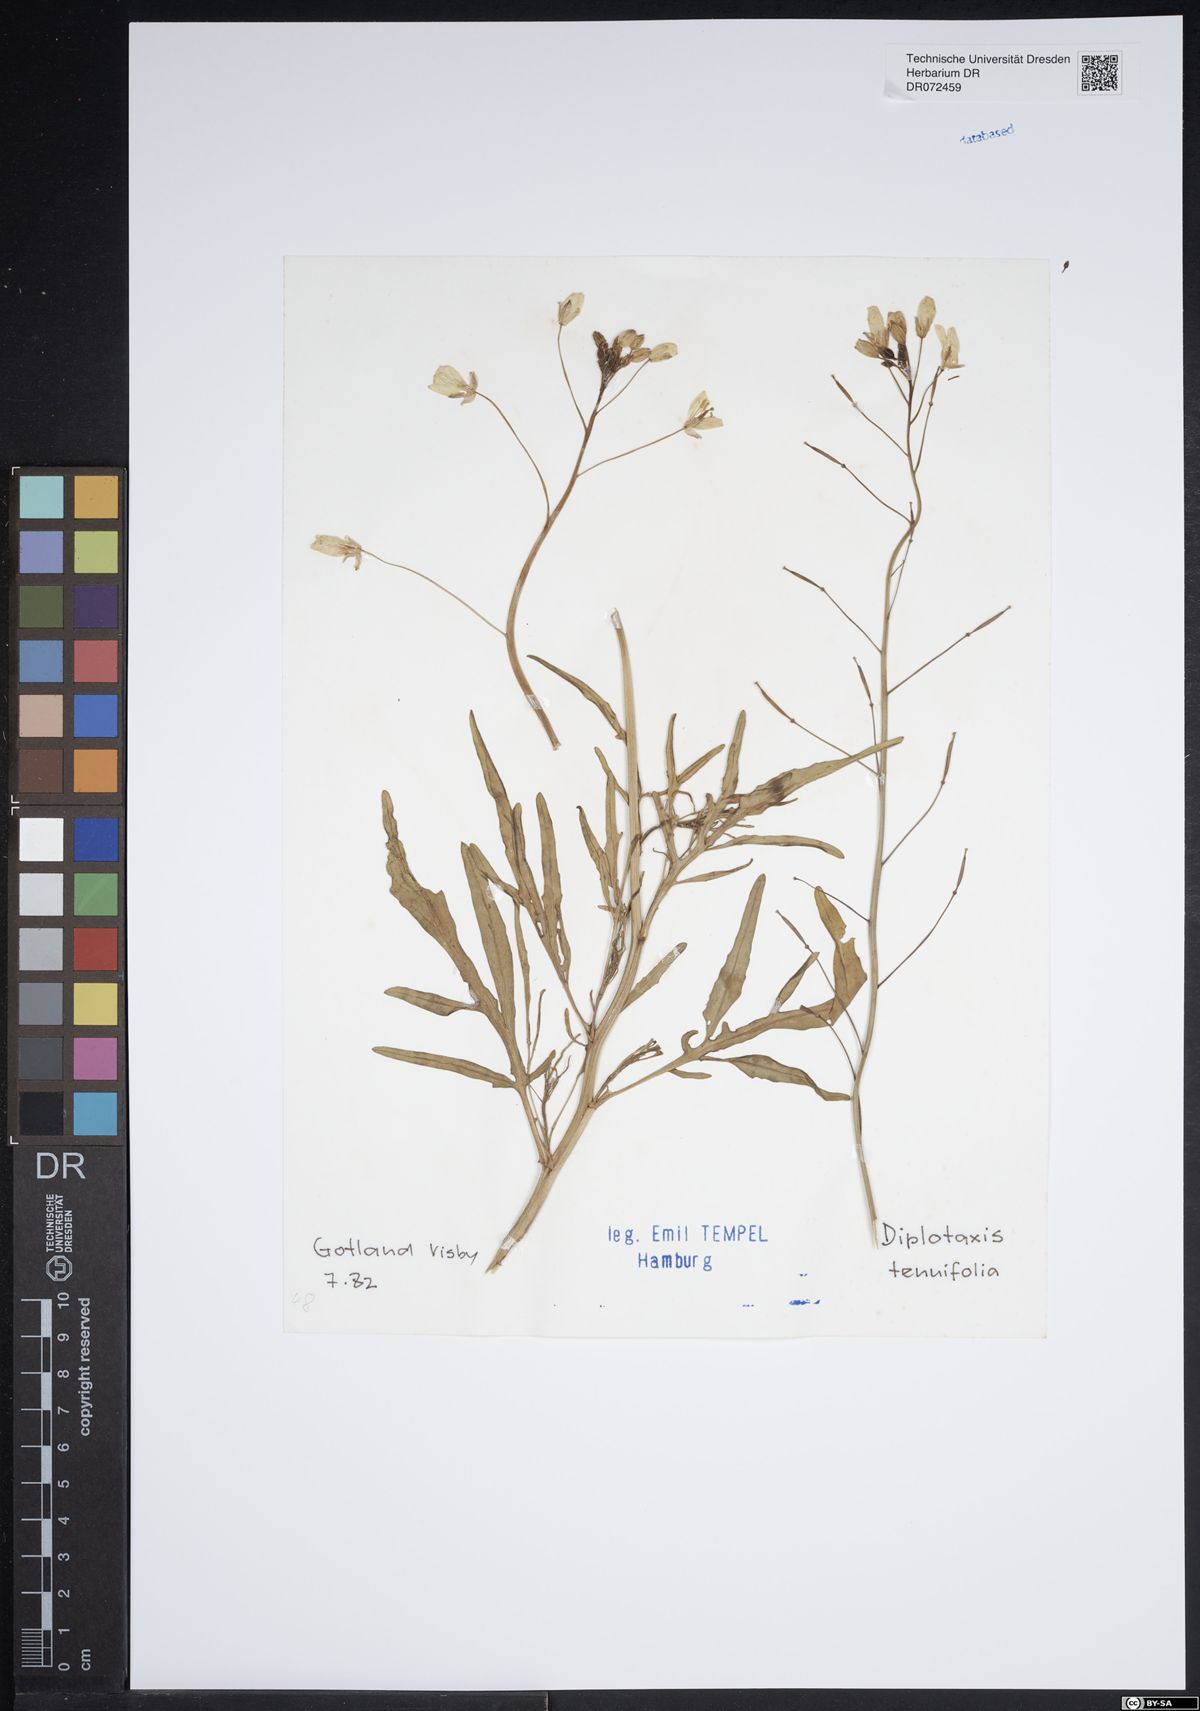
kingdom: Plantae
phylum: Tracheophyta
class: Magnoliopsida
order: Brassicales
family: Brassicaceae
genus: Diplotaxis
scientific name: Diplotaxis tenuifolia
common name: Perennial wall-rocket
